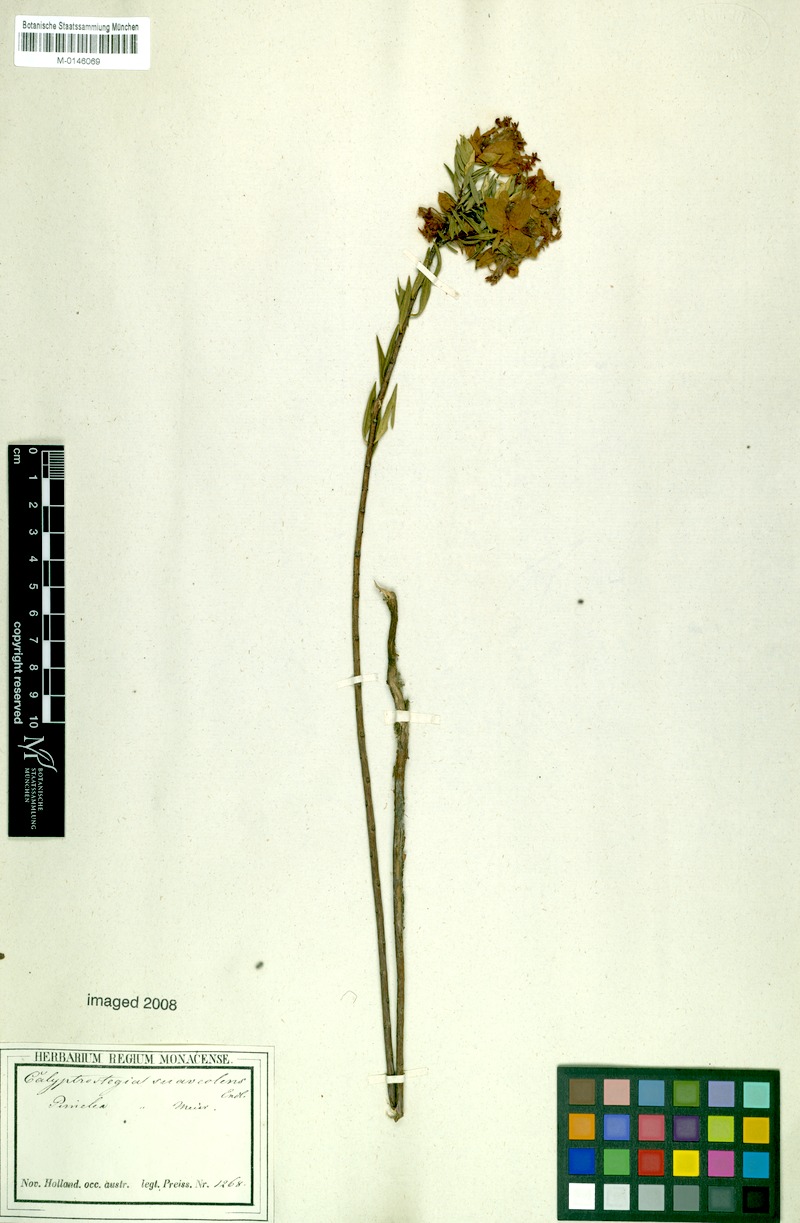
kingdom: Plantae
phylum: Tracheophyta
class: Magnoliopsida
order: Malvales
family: Thymelaeaceae
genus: Pimelea
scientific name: Pimelea suaveolens
